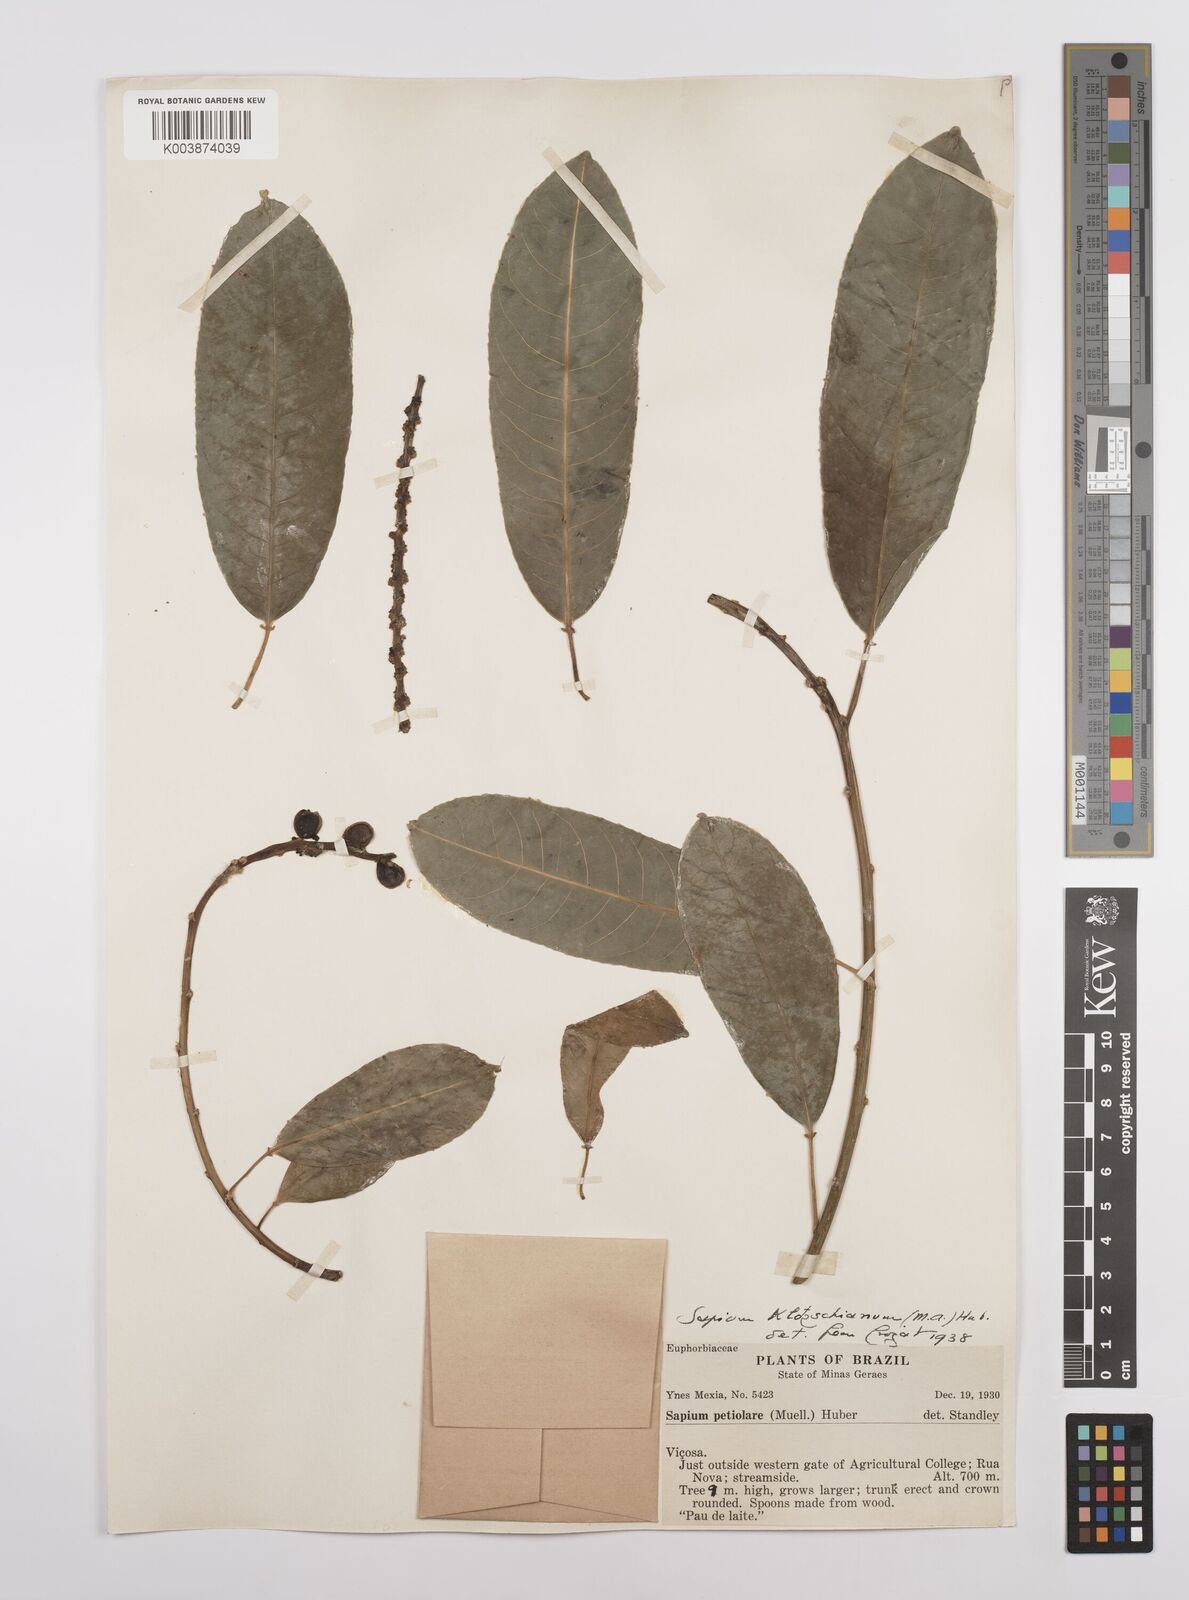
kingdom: Plantae
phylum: Tracheophyta
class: Magnoliopsida
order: Malpighiales
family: Euphorbiaceae
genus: Sapium
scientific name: Sapium glandulosum
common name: Milktree
